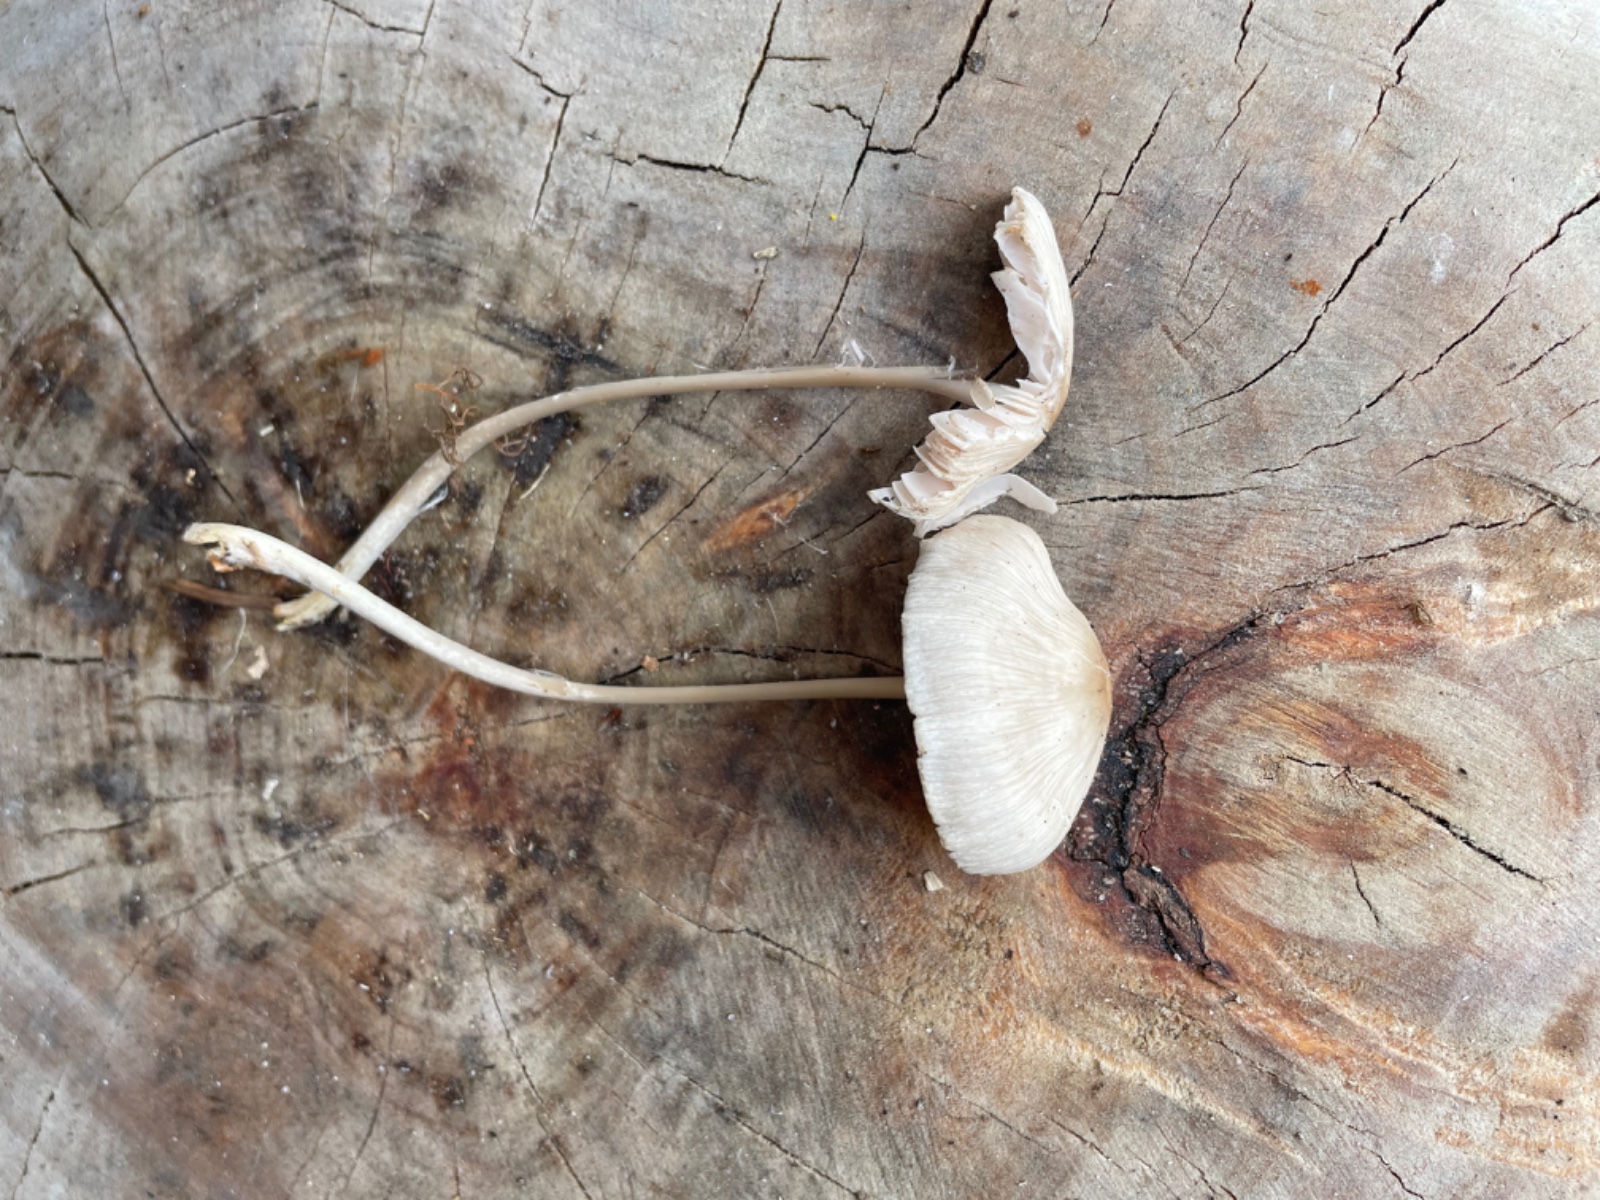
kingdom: Fungi
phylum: Basidiomycota
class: Agaricomycetes
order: Agaricales
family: Mycenaceae
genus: Mycena
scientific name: Mycena galericulata
